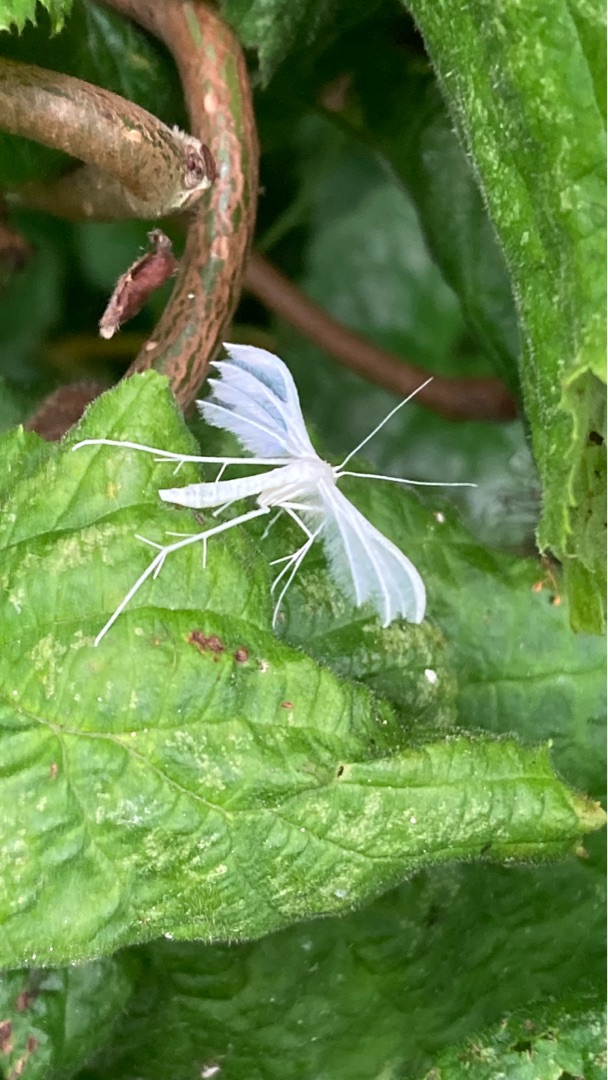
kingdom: Animalia
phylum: Arthropoda
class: Insecta
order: Lepidoptera
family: Pterophoridae
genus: Pterophorus
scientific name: Pterophorus pentadactyla
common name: Hvidt fjermøl
